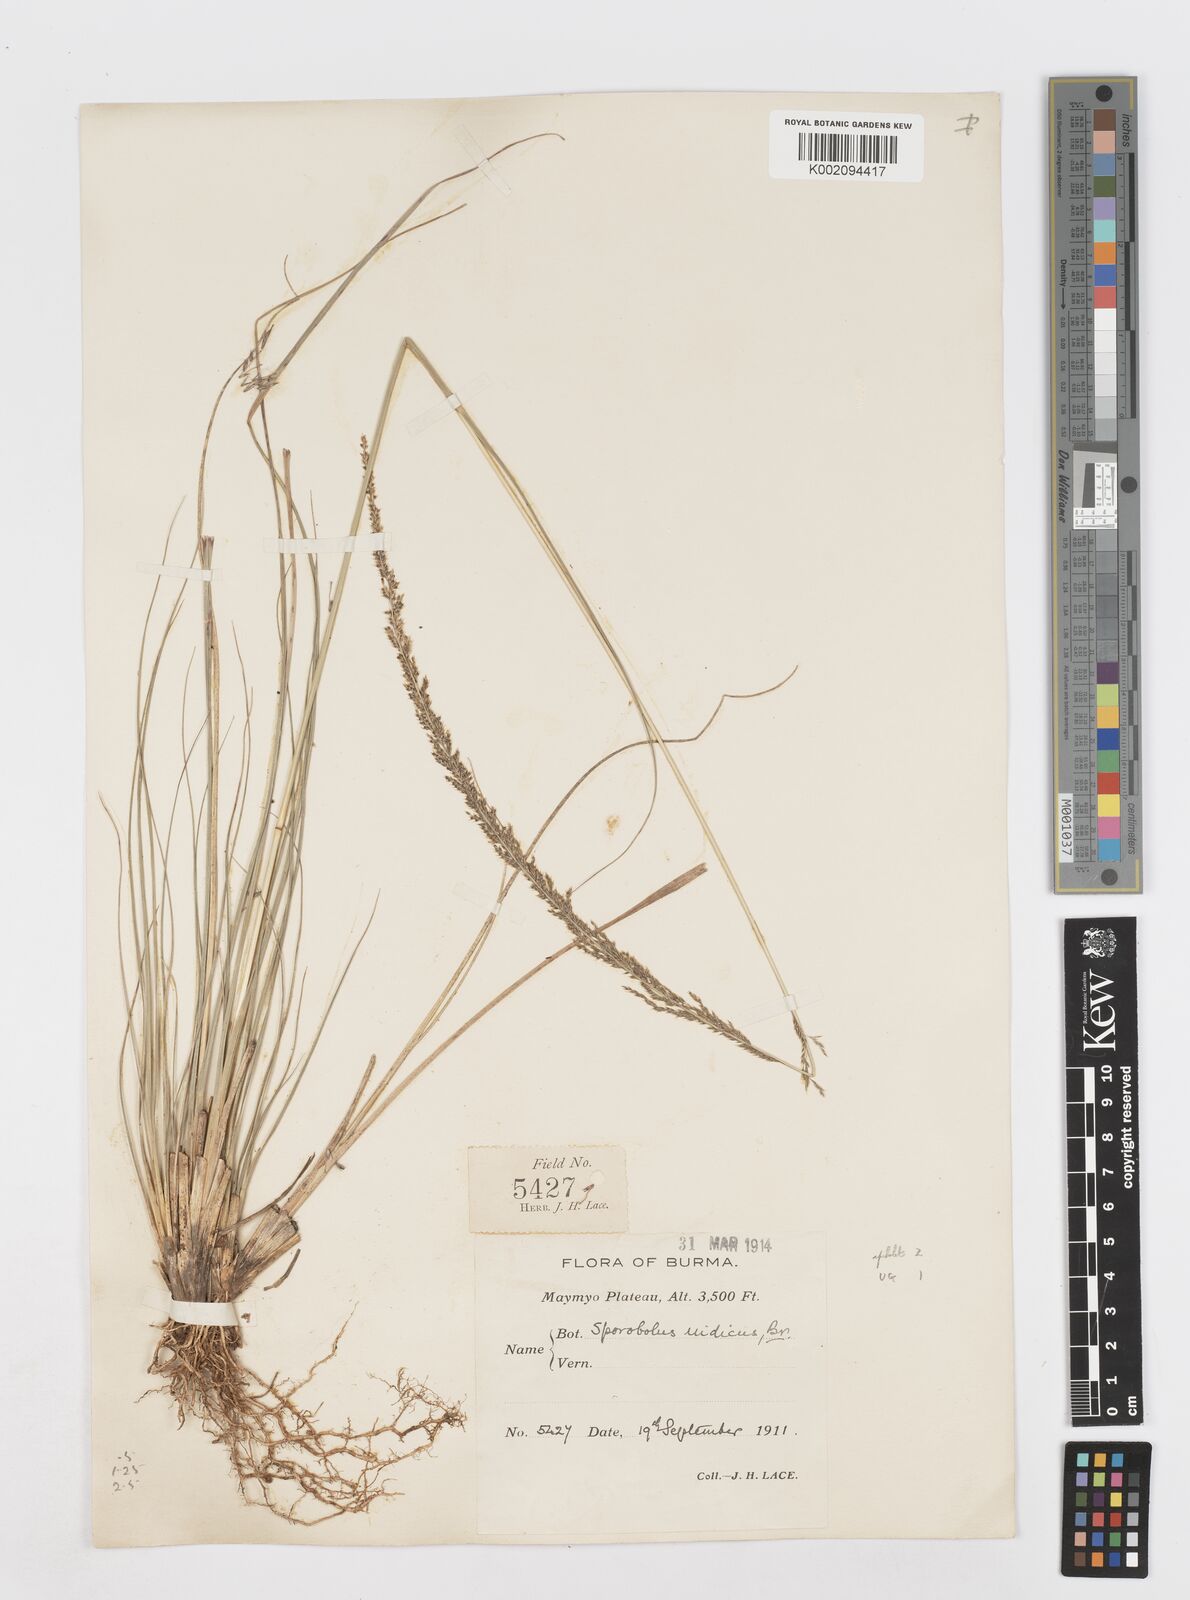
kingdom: Plantae
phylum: Tracheophyta
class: Liliopsida
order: Poales
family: Poaceae
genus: Sporobolus
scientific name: Sporobolus fertilis
